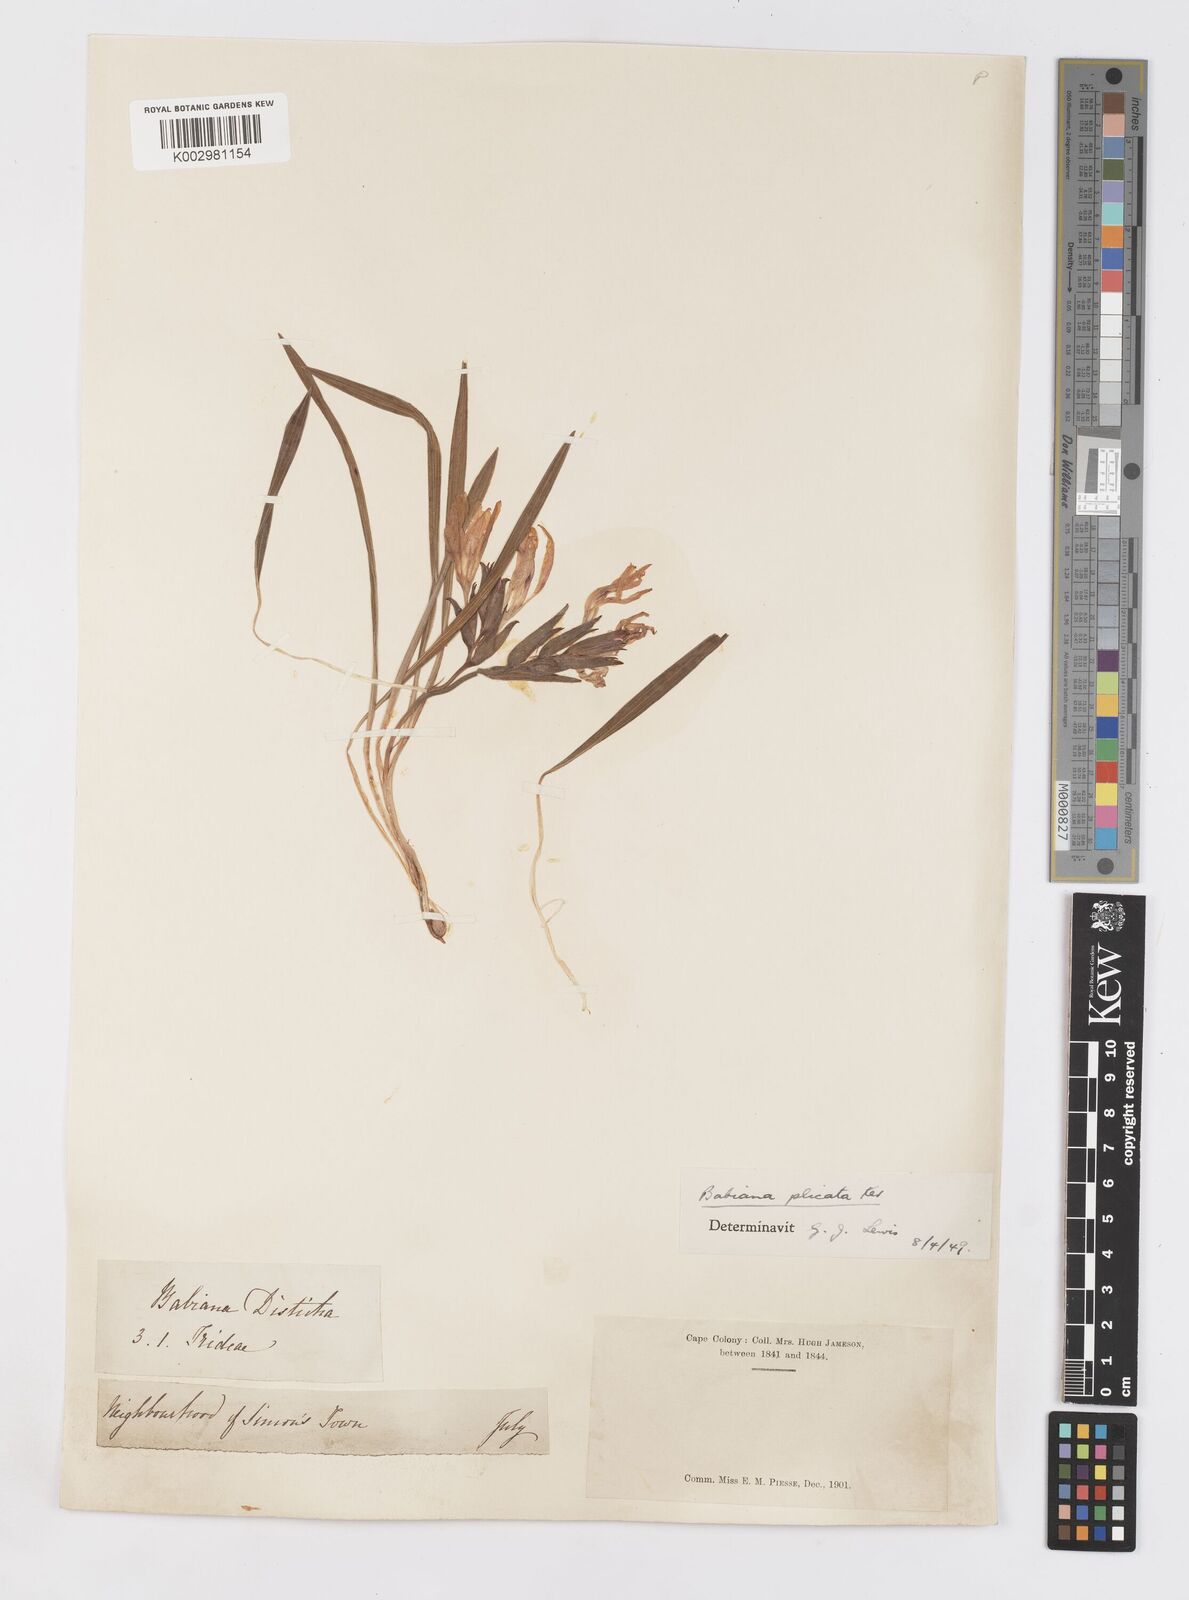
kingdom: Plantae
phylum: Tracheophyta
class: Liliopsida
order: Asparagales
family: Iridaceae
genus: Babiana
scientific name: Babiana fragrans
